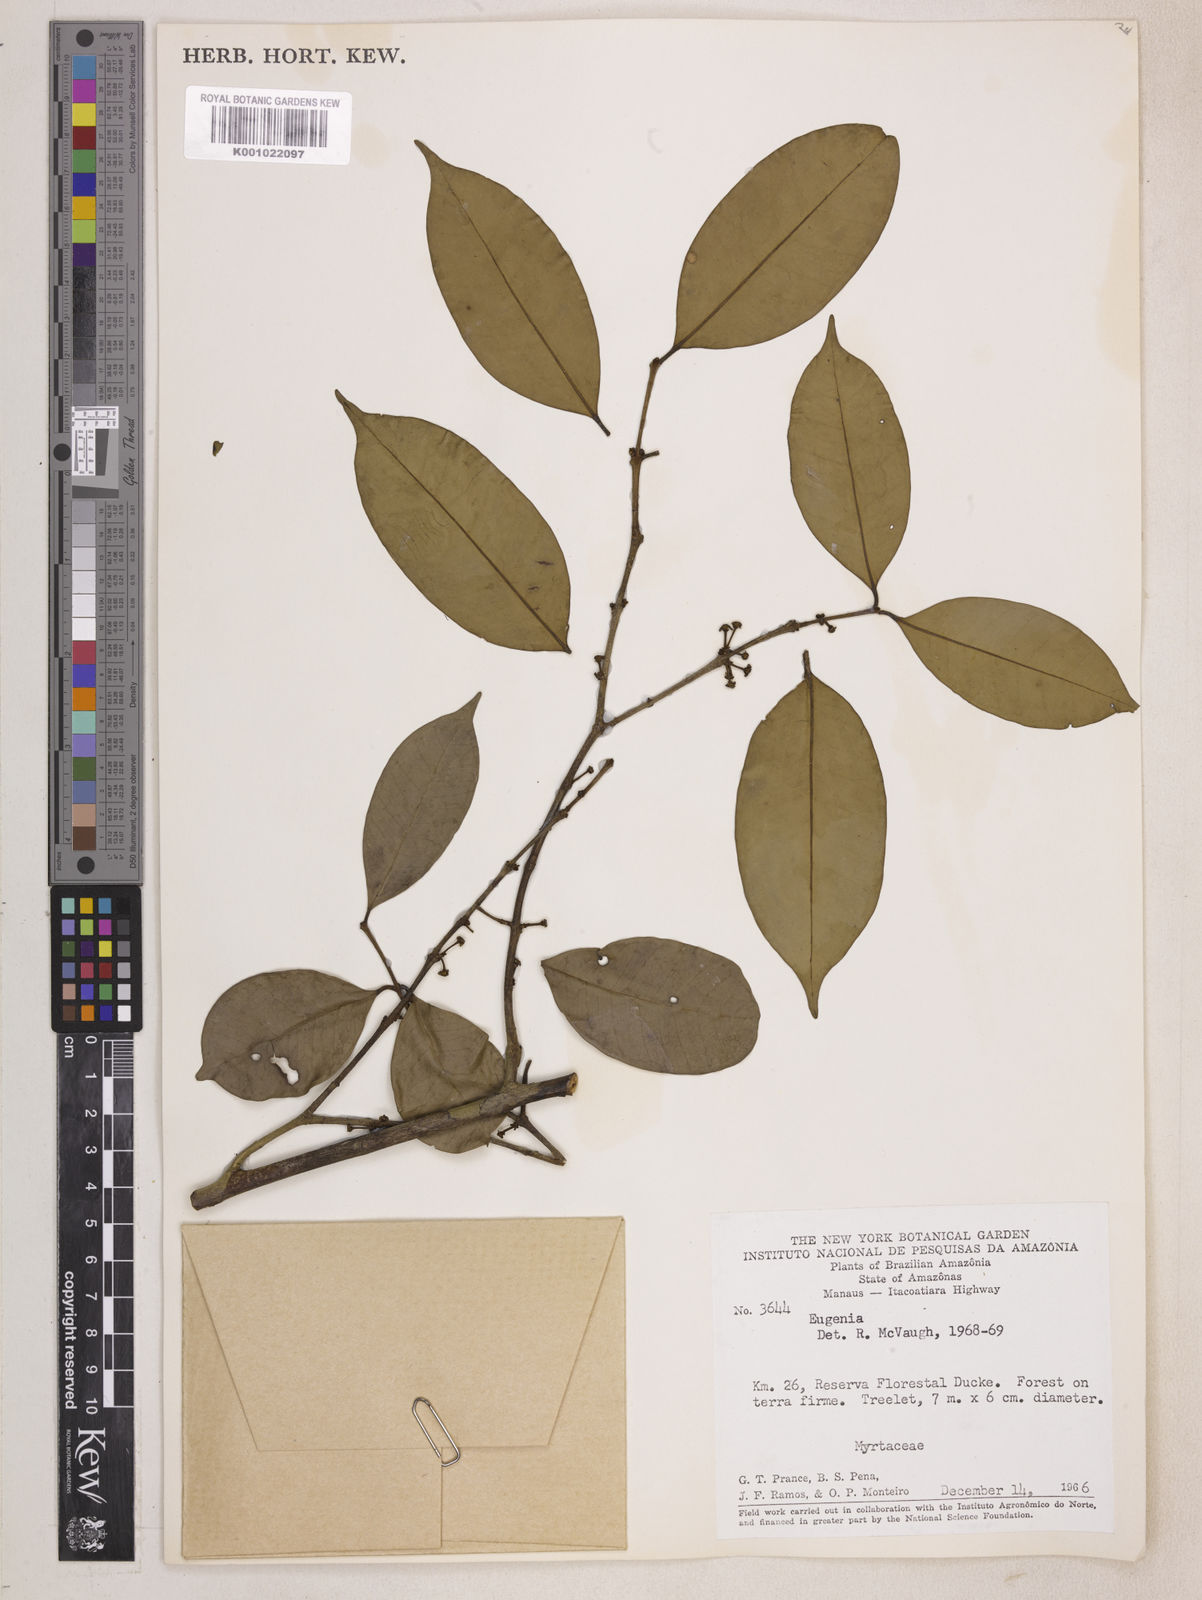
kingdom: Plantae
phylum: Tracheophyta
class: Magnoliopsida
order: Myrtales
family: Myrtaceae
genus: Eugenia
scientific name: Eugenia caducipetala
